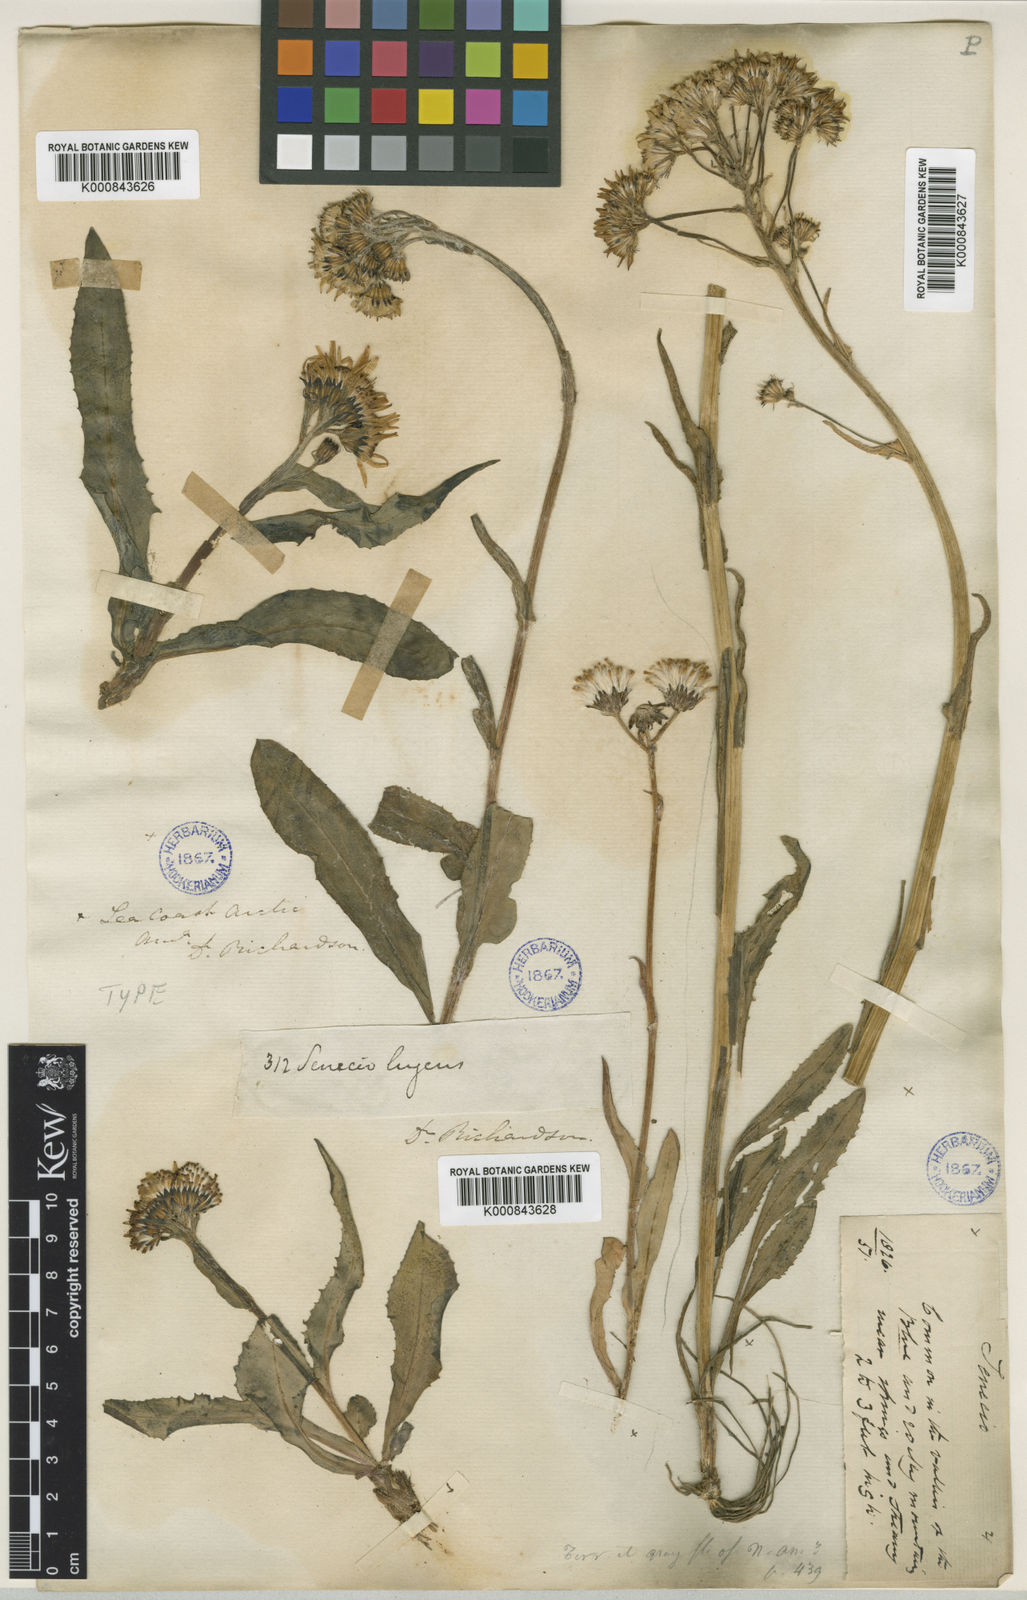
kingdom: Plantae
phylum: Tracheophyta
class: Magnoliopsida
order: Asterales
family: Asteraceae
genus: Senecio
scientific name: Senecio lugens
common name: Black-tip groundsel
